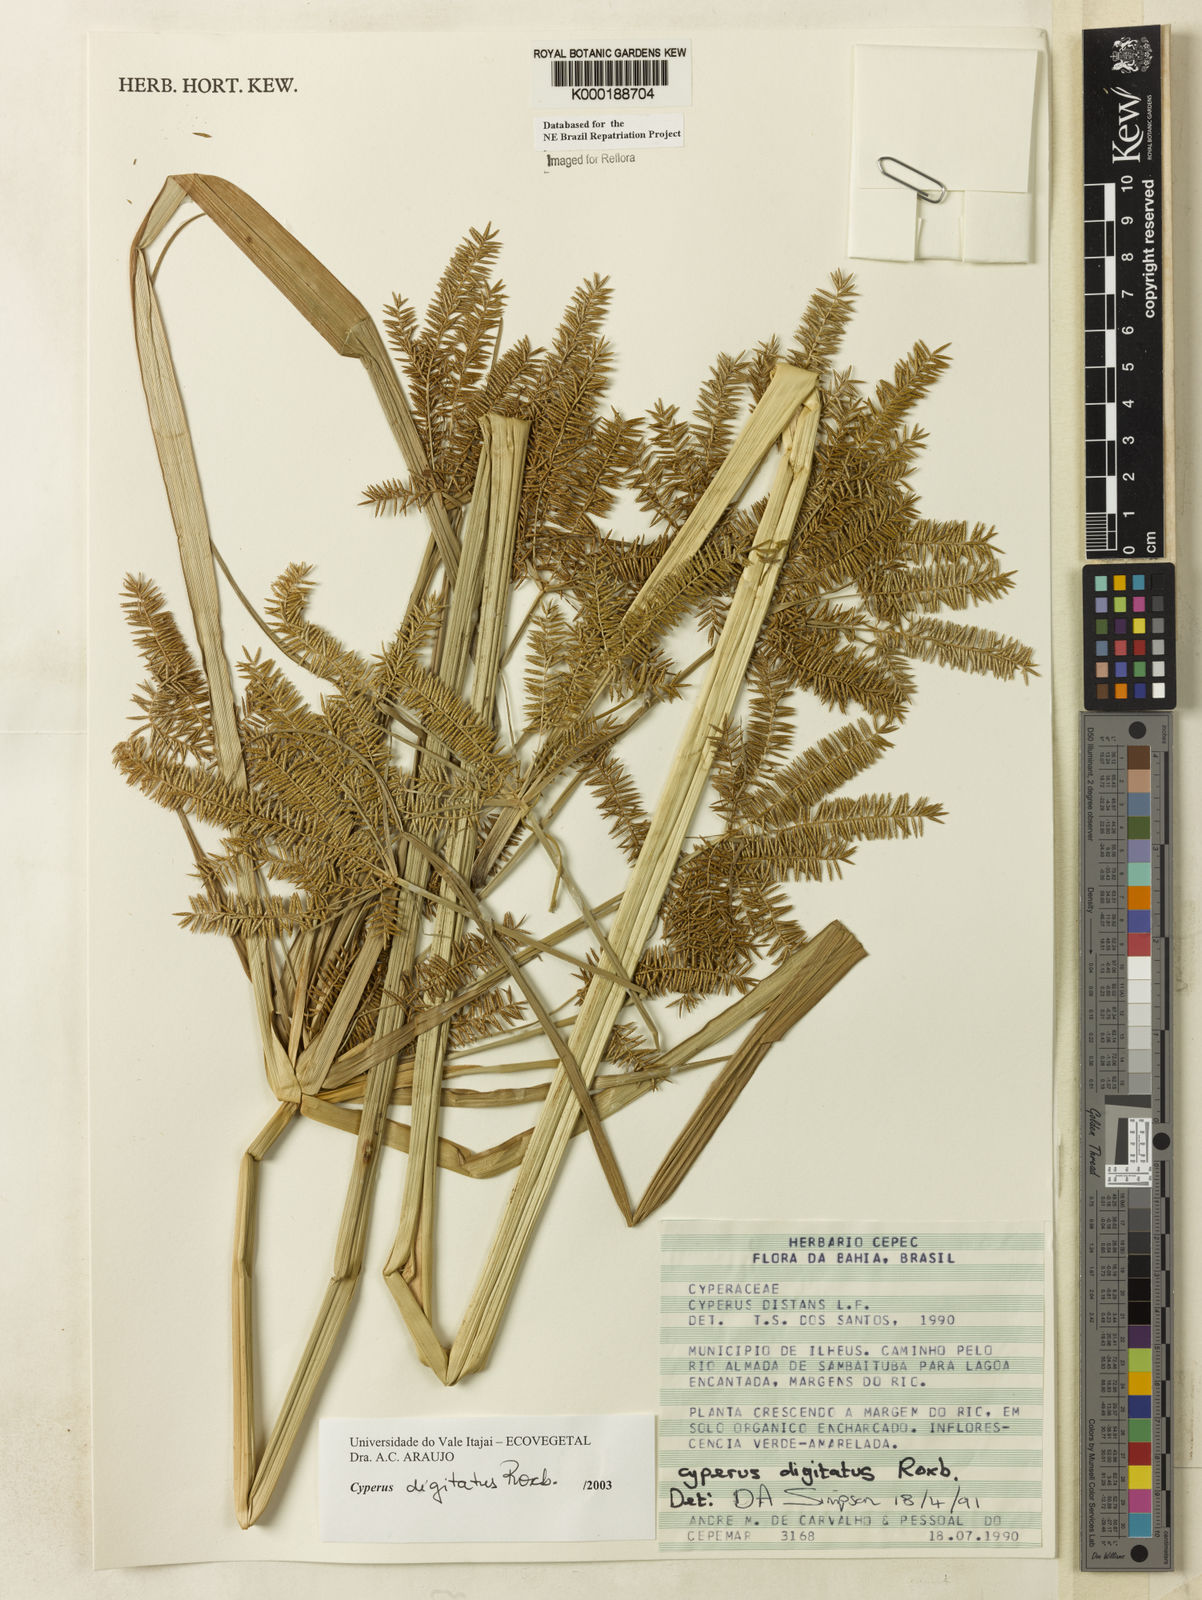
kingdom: Plantae
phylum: Tracheophyta
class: Liliopsida
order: Poales
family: Cyperaceae
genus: Cyperus
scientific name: Cyperus digitatus
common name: Finger flatsedge
